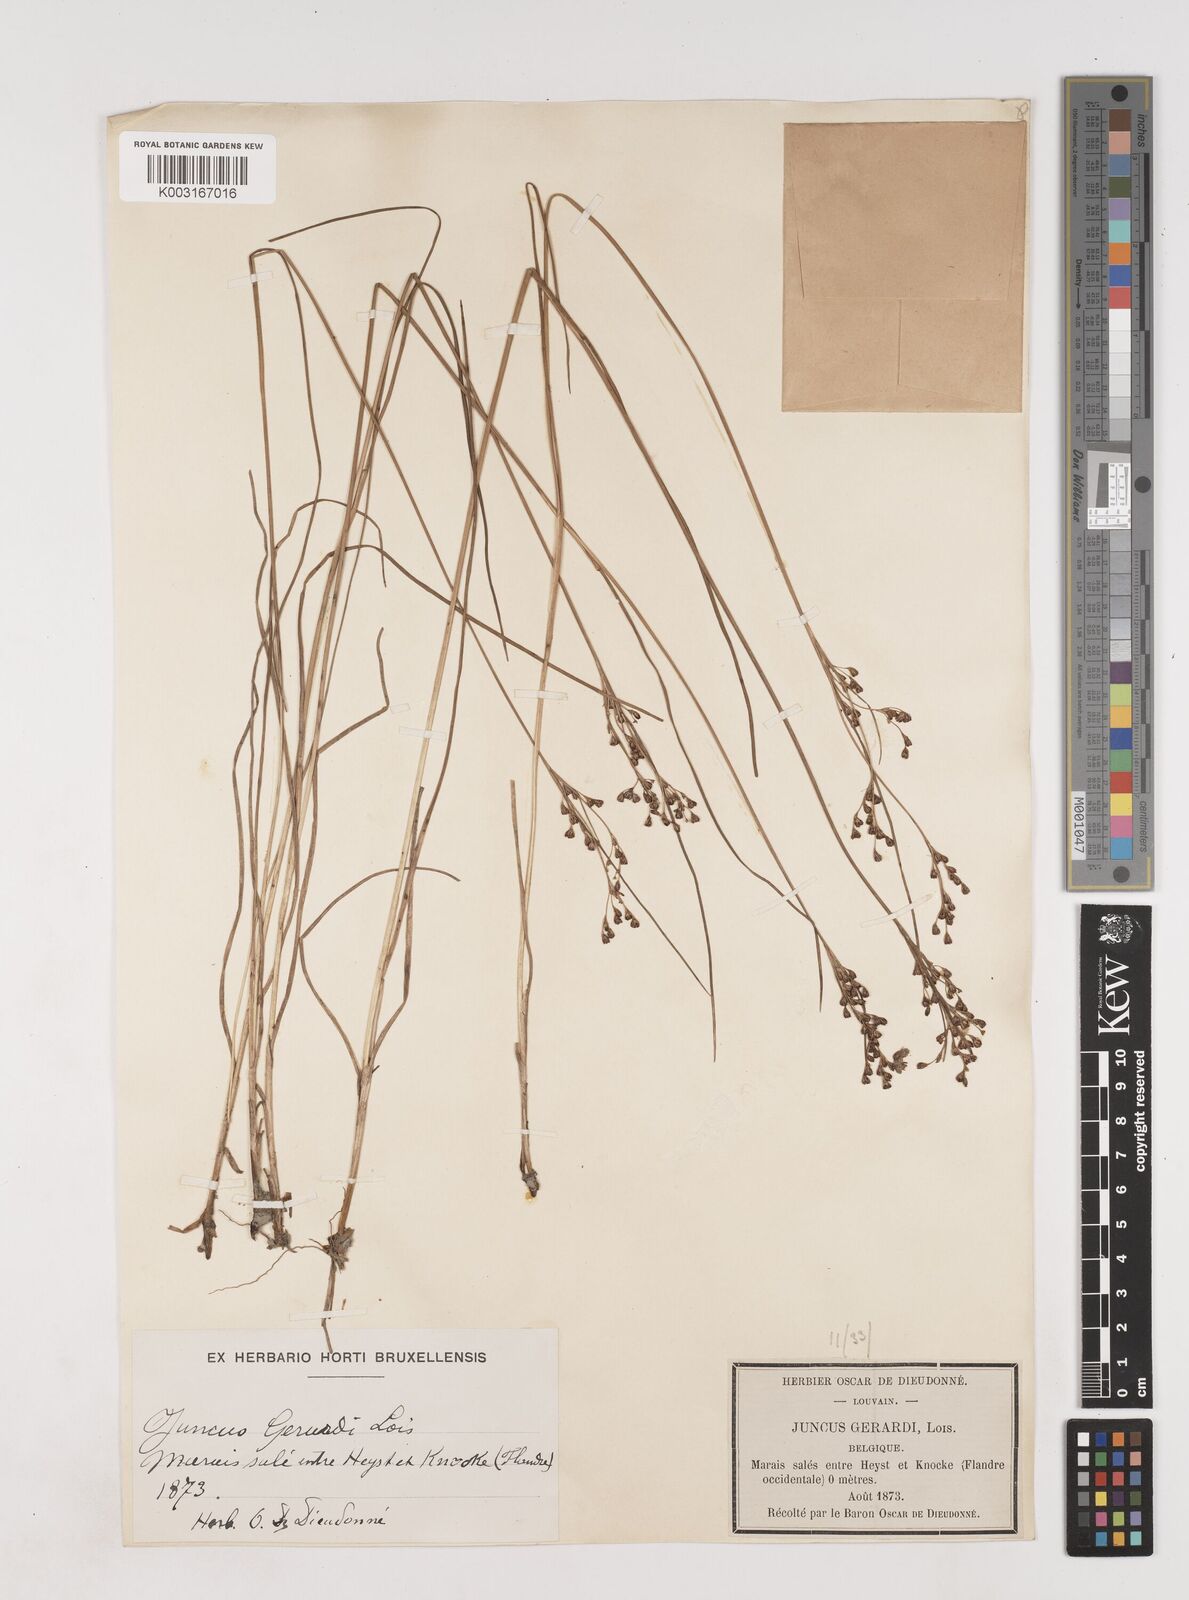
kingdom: Plantae
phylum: Tracheophyta
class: Liliopsida
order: Poales
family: Juncaceae
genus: Juncus
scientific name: Juncus gerardi
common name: Saltmarsh rush
